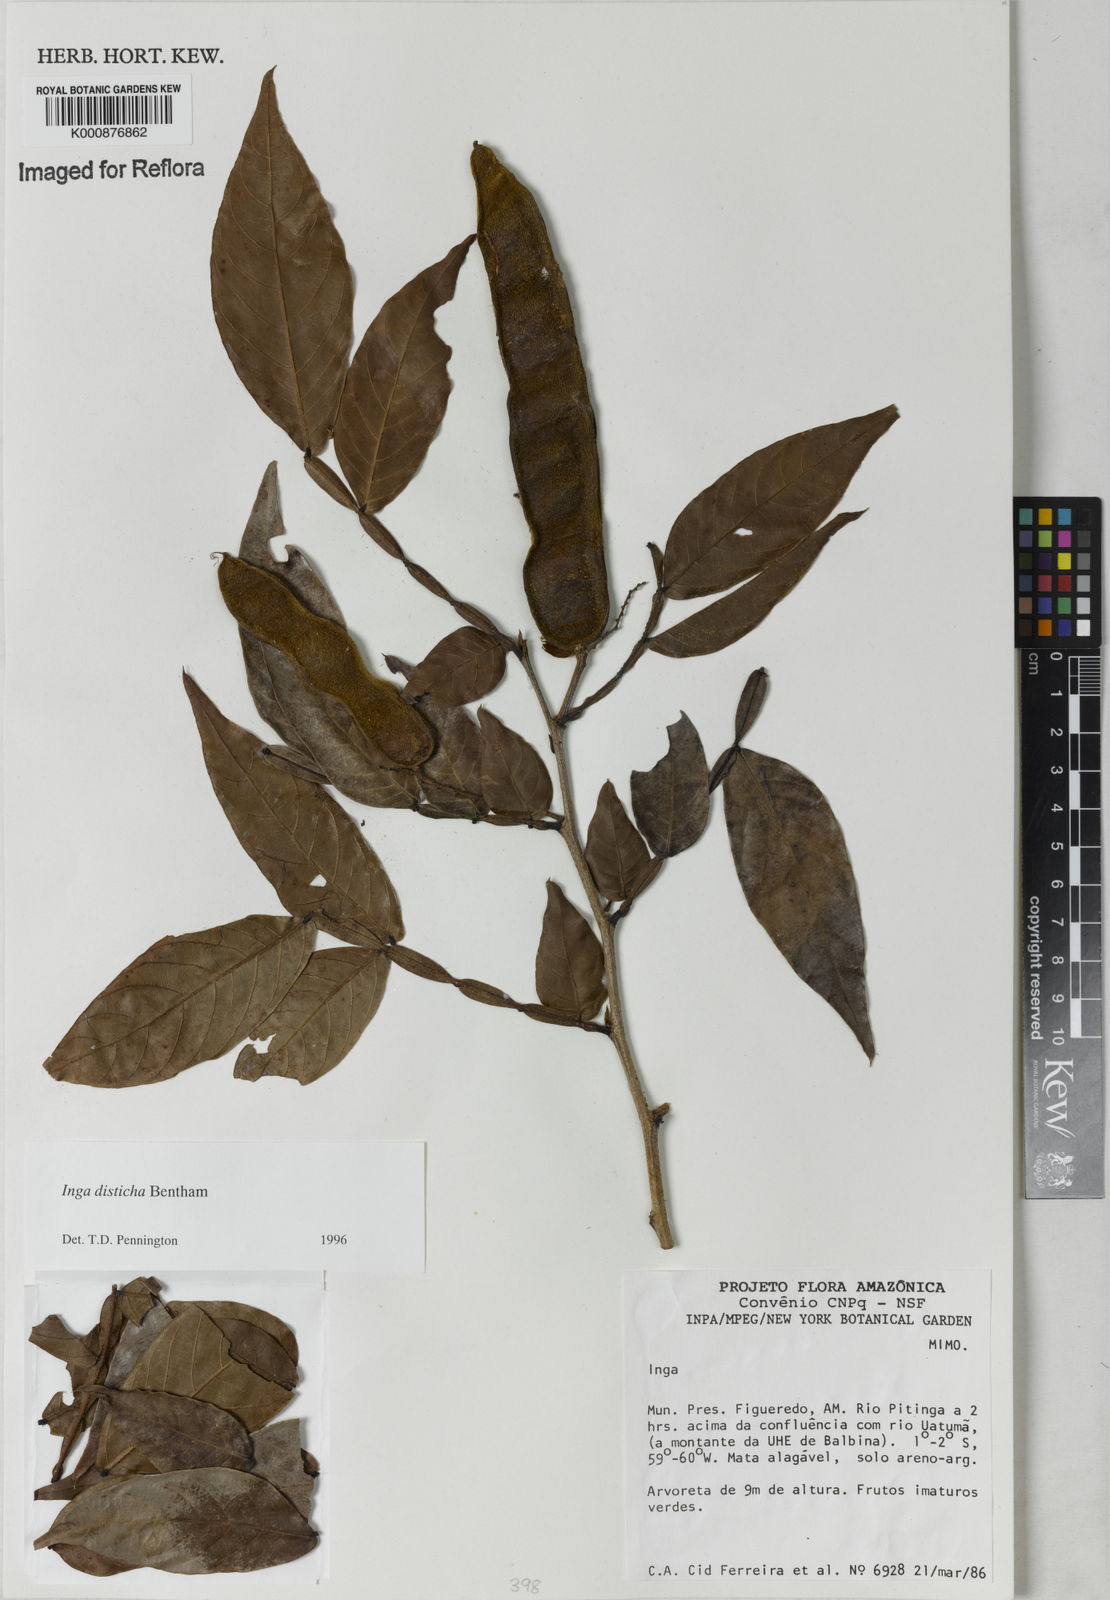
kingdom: Plantae
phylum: Tracheophyta
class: Magnoliopsida
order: Fabales
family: Fabaceae
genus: Inga
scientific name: Inga disticha
